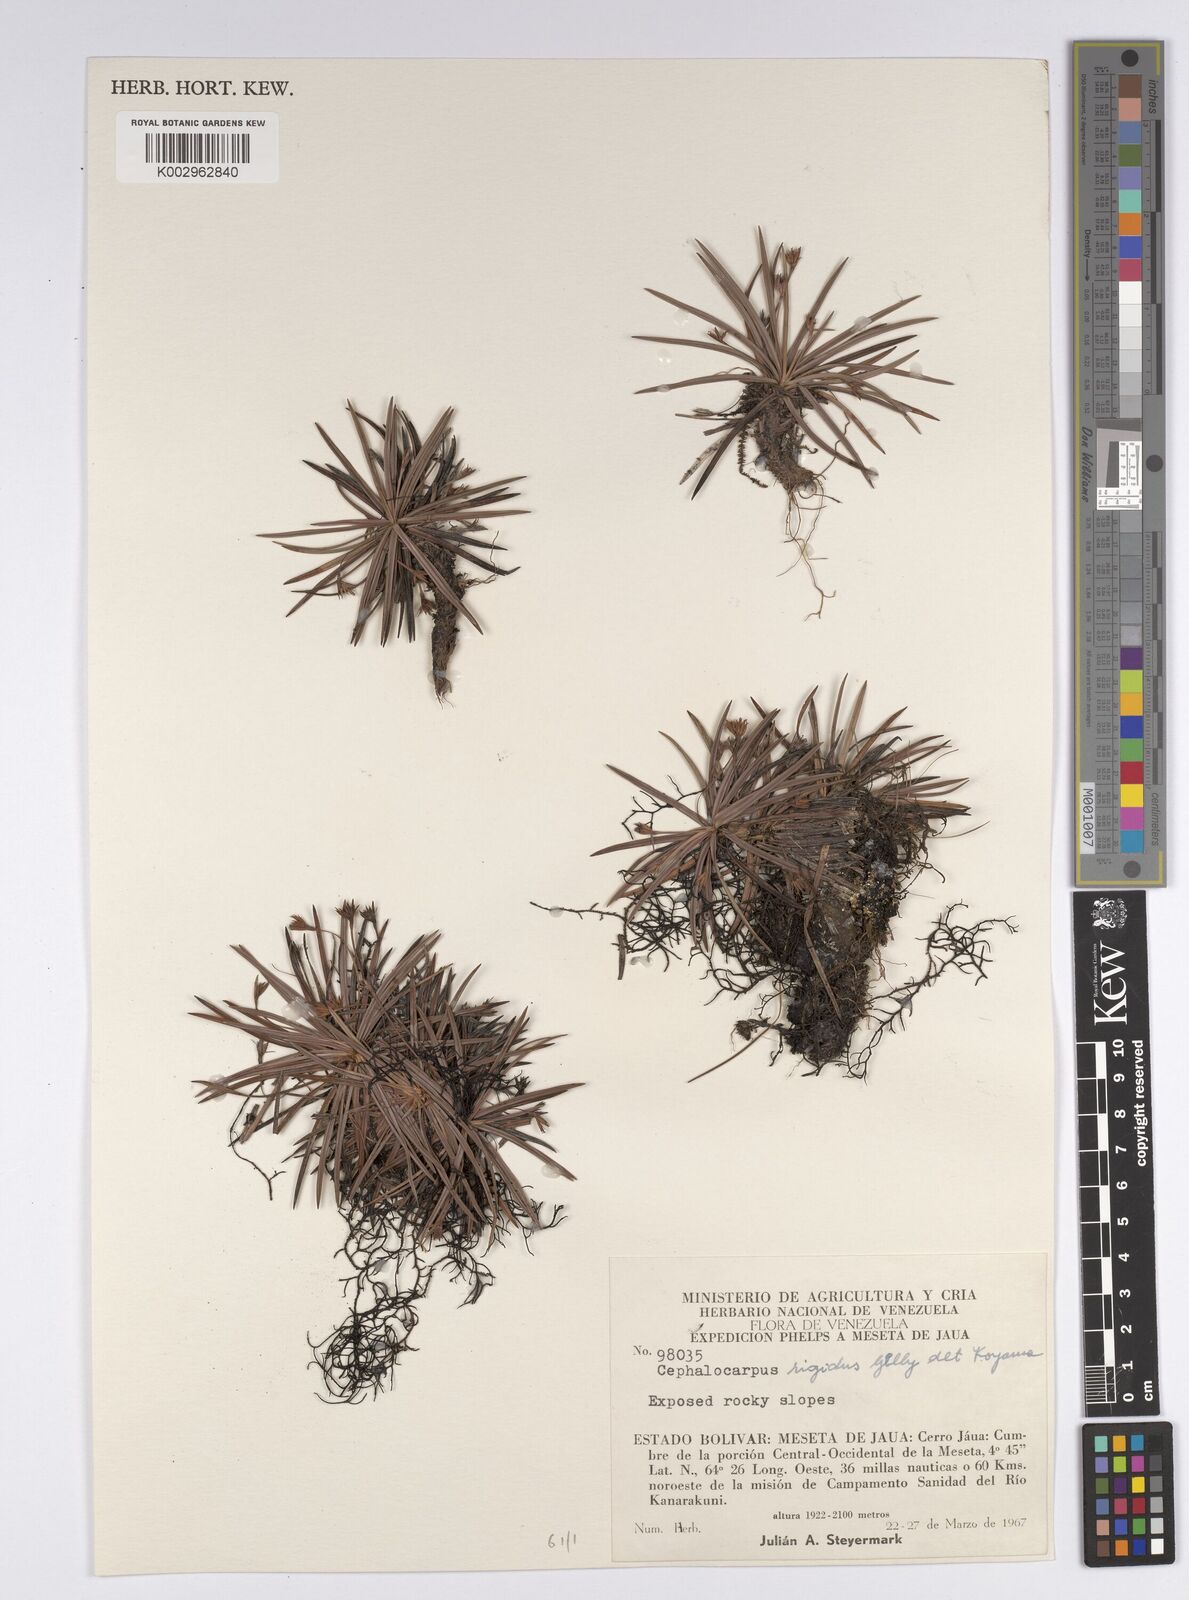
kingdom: Plantae
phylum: Tracheophyta
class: Liliopsida
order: Poales
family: Cyperaceae
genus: Cephalocarpus
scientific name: Cephalocarpus rigidus
